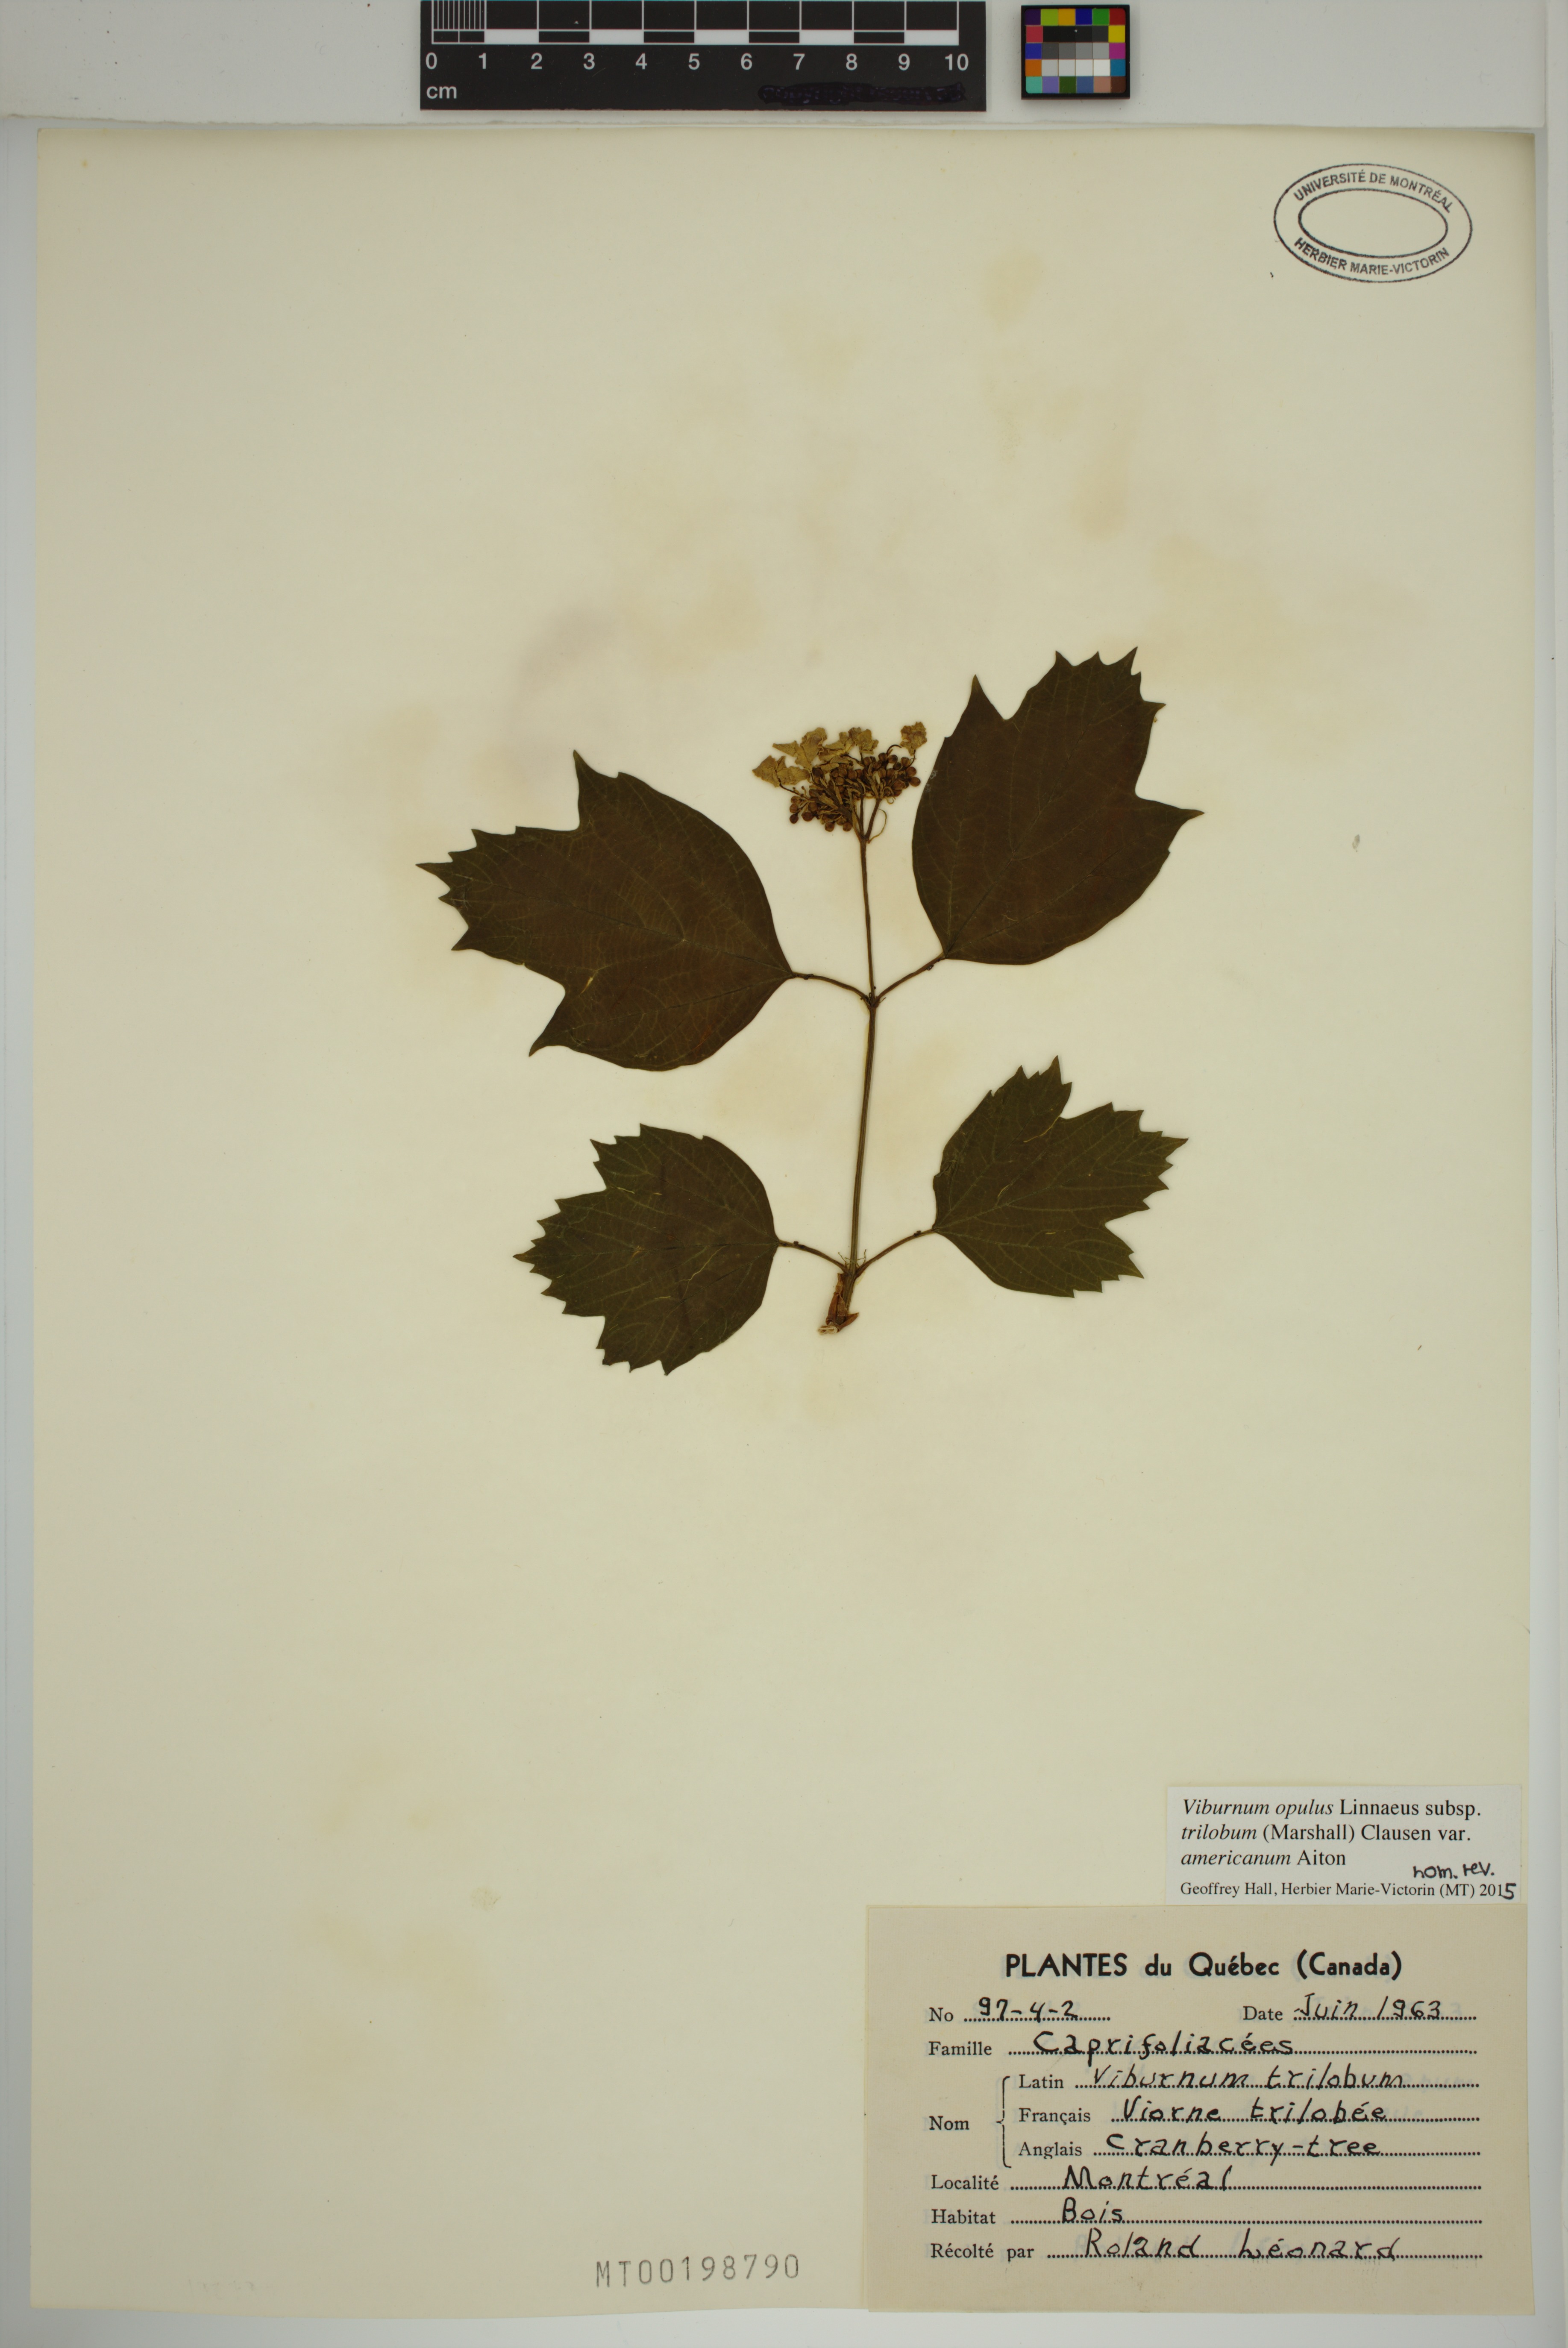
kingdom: Plantae
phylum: Tracheophyta
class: Magnoliopsida
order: Dipsacales
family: Viburnaceae
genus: Viburnum
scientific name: Viburnum trilobum
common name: American cranberrybush
